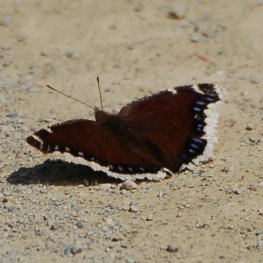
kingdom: Animalia
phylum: Arthropoda
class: Insecta
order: Lepidoptera
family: Nymphalidae
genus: Nymphalis
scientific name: Nymphalis antiopa
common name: Mourning Cloak
